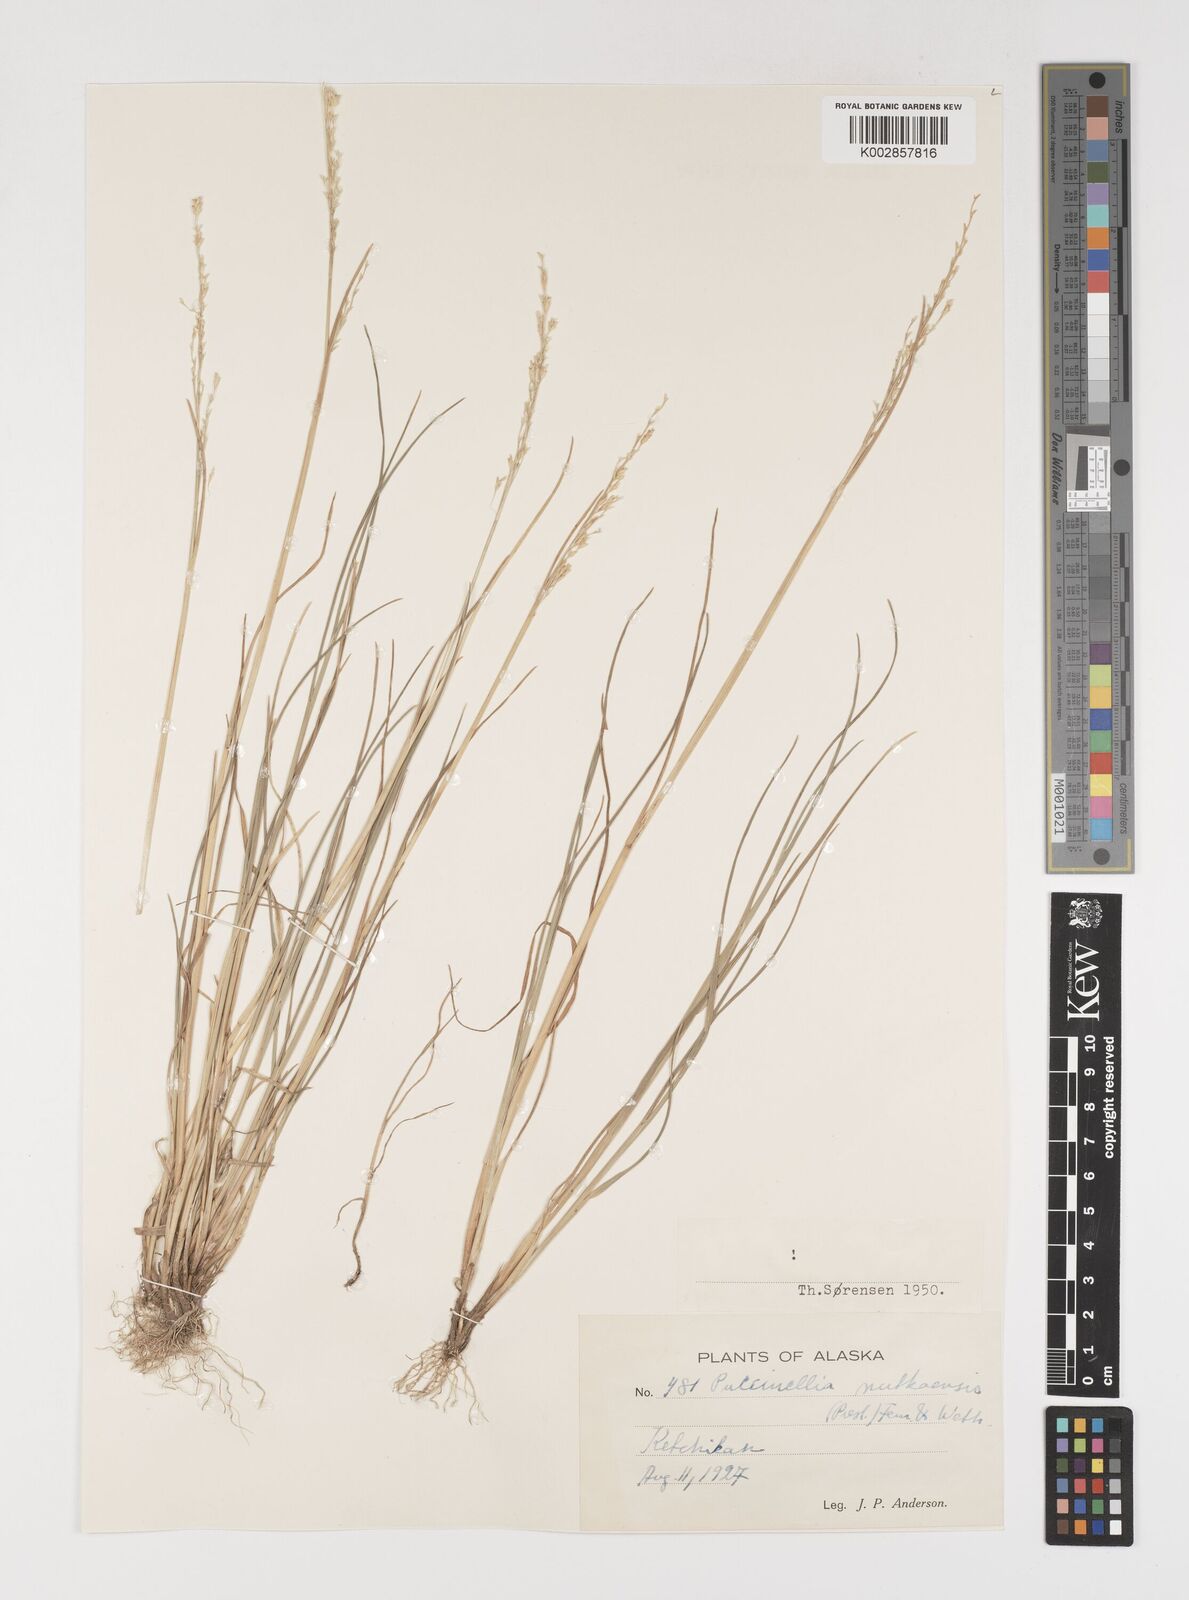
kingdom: Plantae
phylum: Tracheophyta
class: Liliopsida
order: Poales
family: Poaceae
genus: Puccinellia
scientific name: Puccinellia nutkaensis
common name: Nootka alkaligrass
